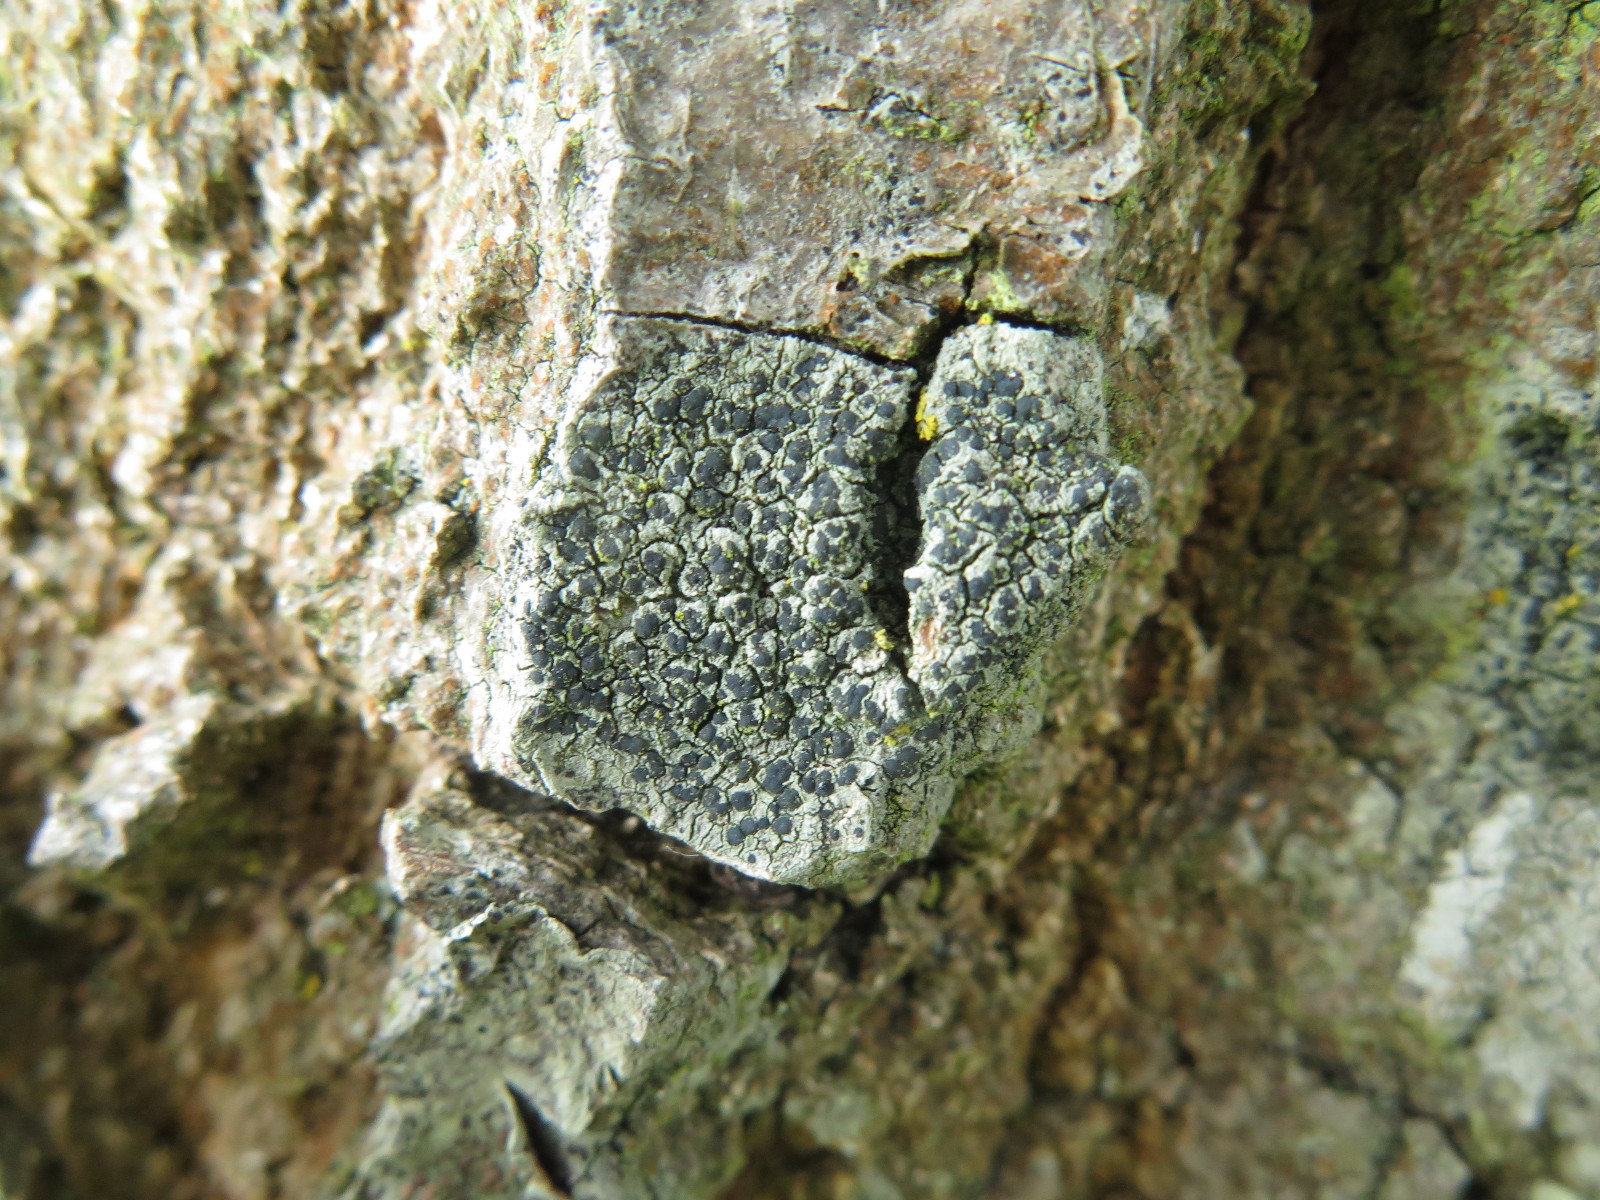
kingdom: Fungi
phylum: Ascomycota
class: Lecanoromycetes
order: Lecanorales
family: Lecanoraceae
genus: Lecidella
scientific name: Lecidella elaeochroma
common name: grågrøn skivelav
